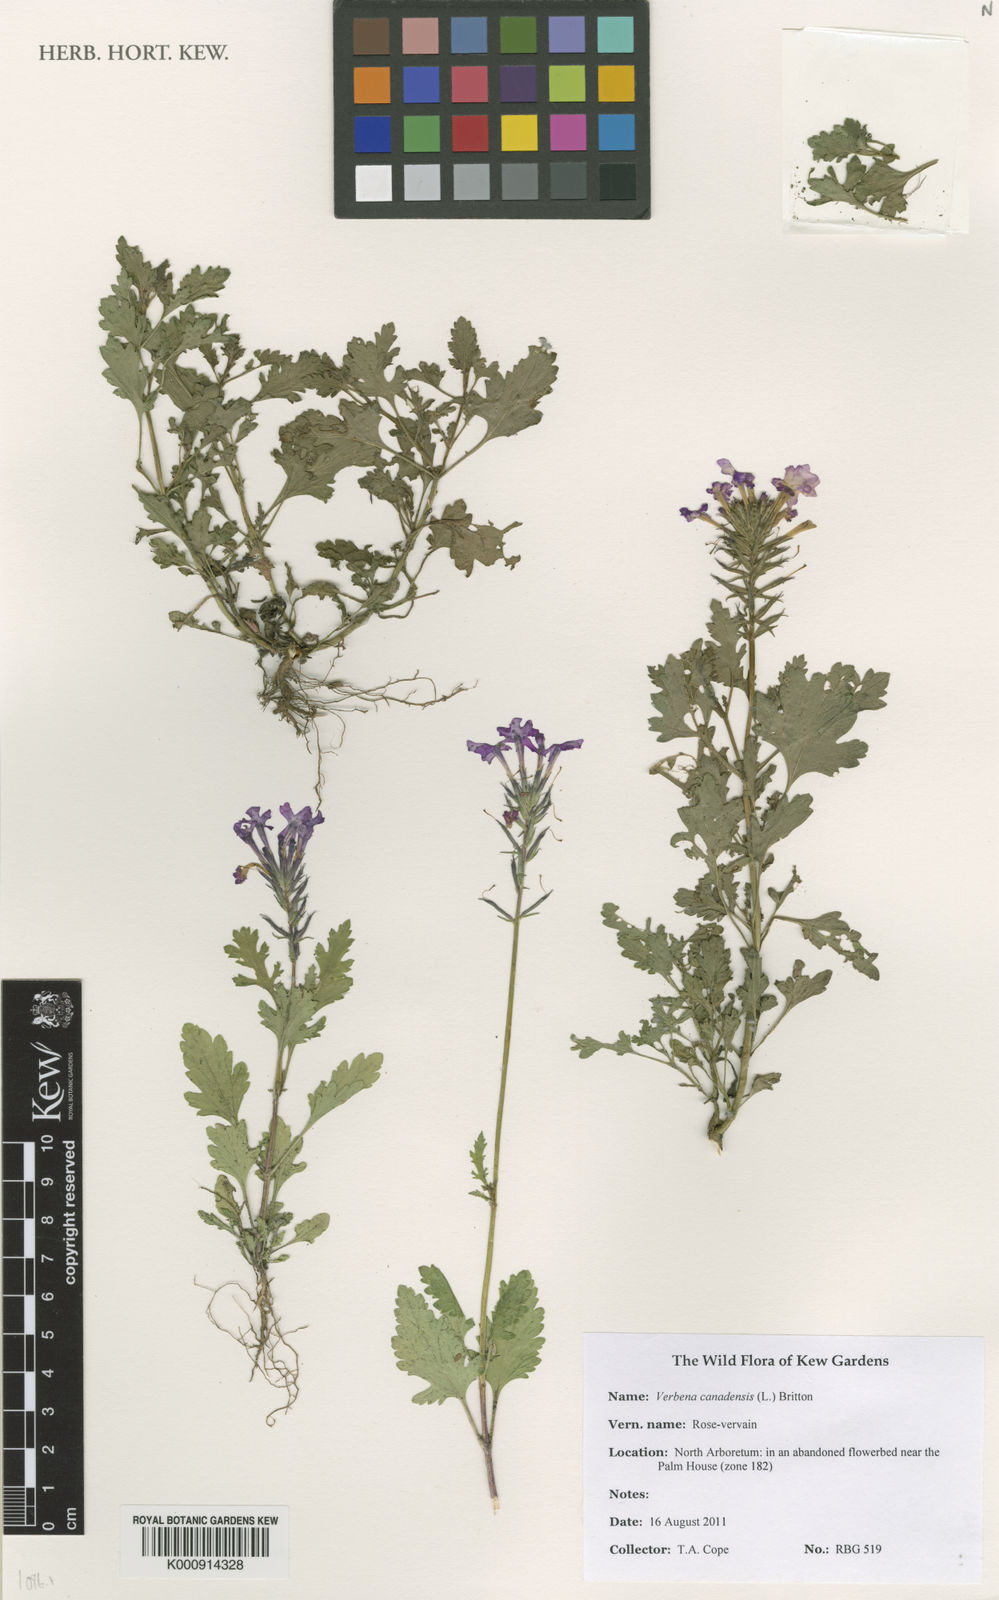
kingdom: Plantae
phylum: Tracheophyta
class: Magnoliopsida
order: Lamiales
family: Verbenaceae
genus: Verbena
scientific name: Verbena canadensis
